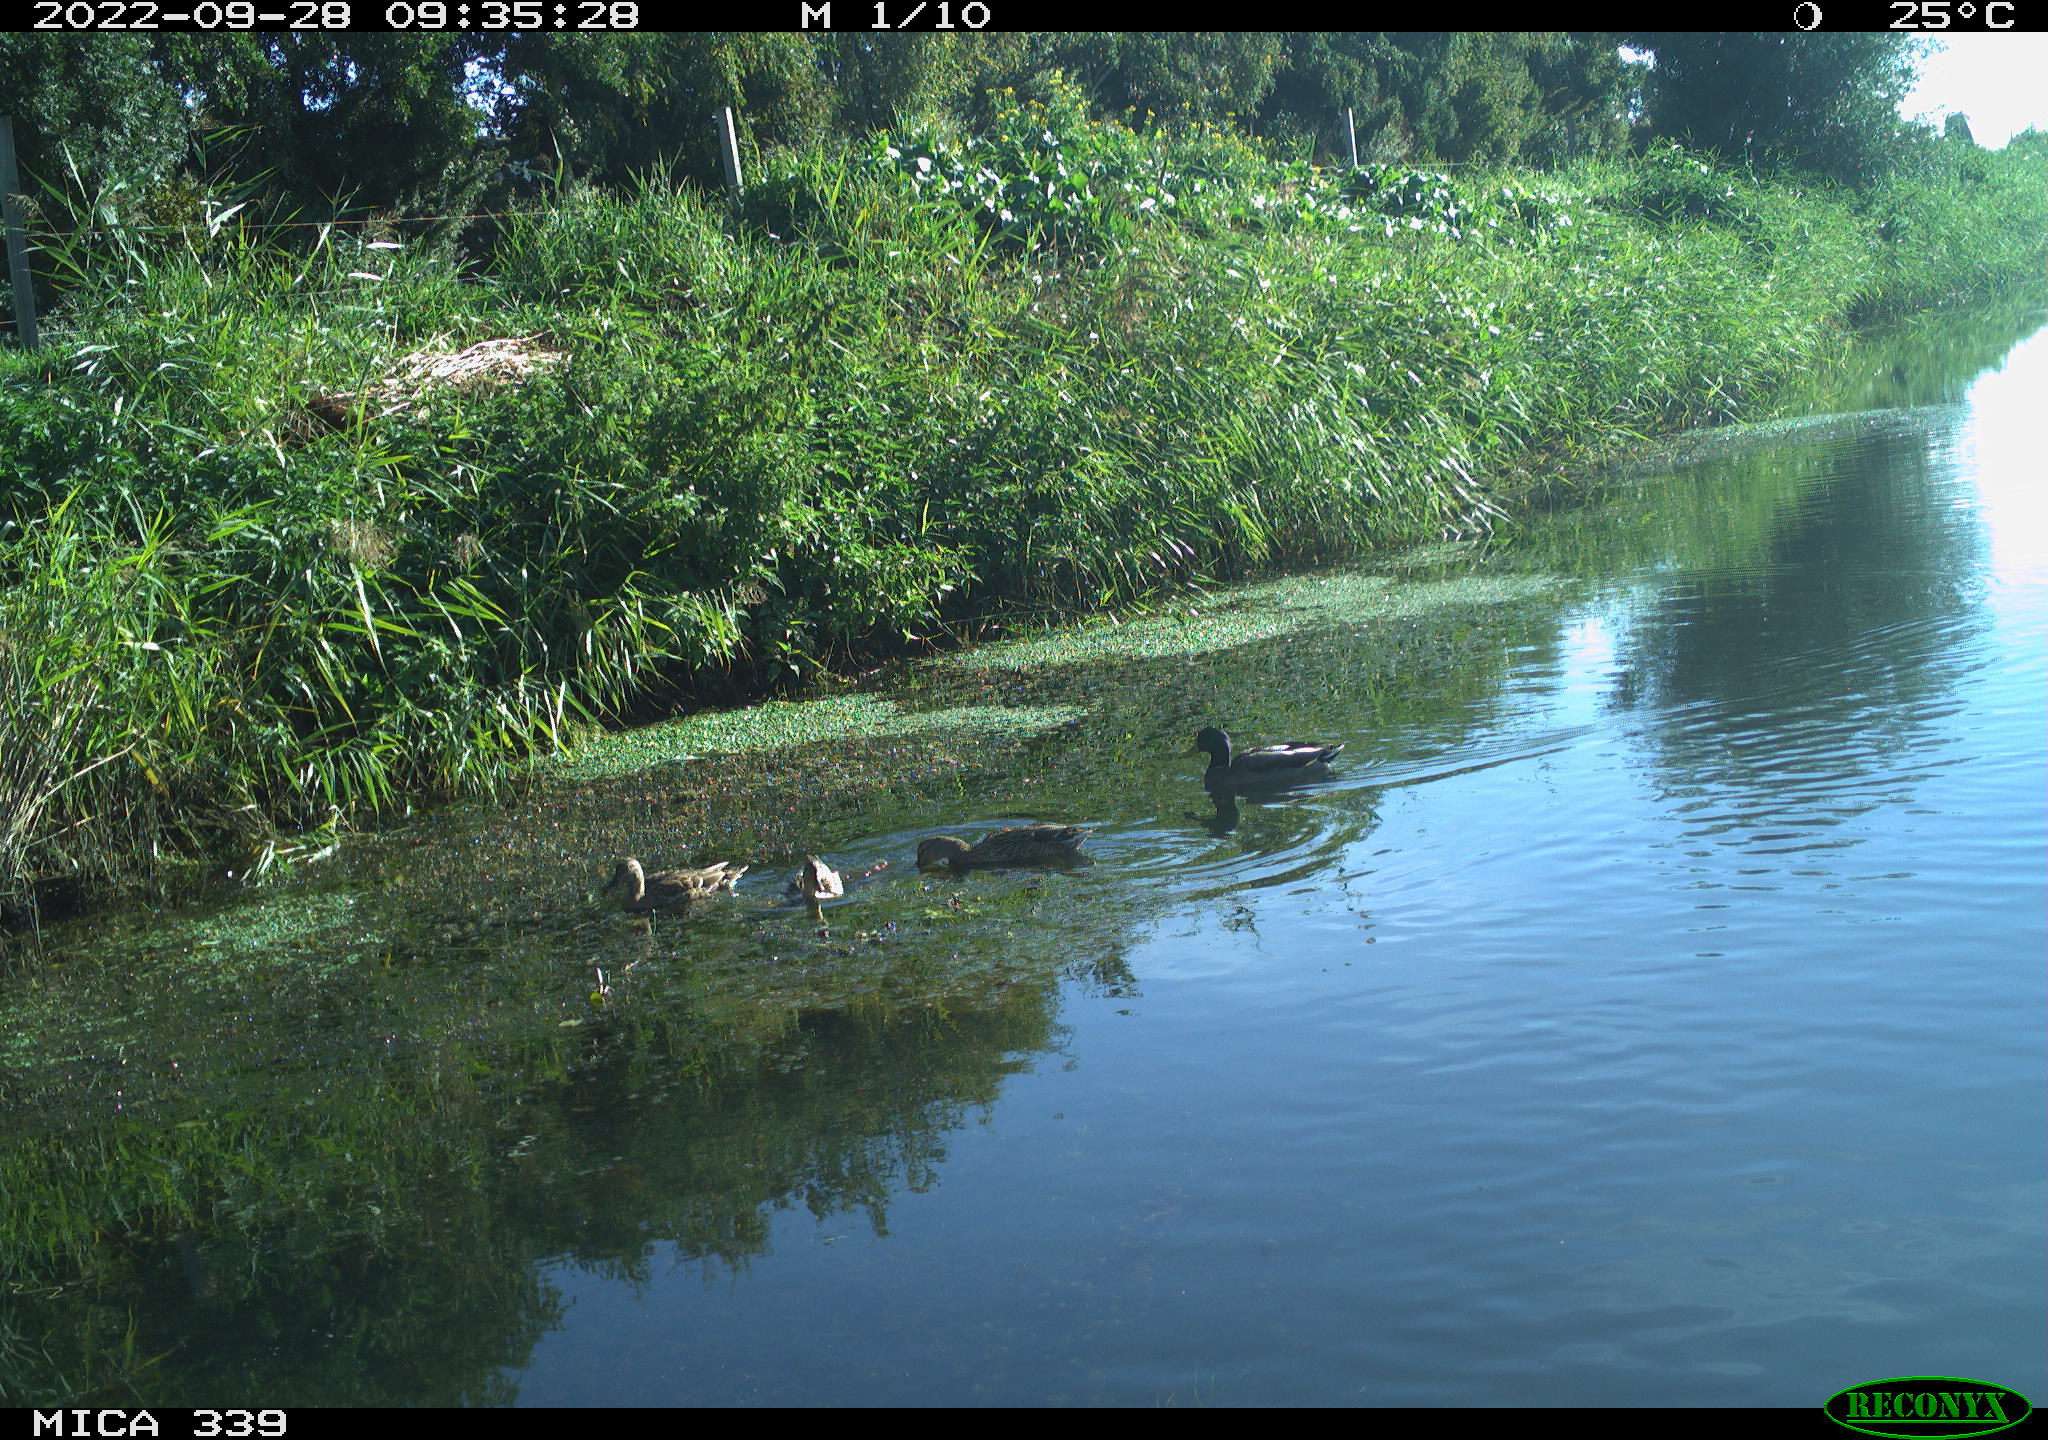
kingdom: Animalia
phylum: Chordata
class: Aves
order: Anseriformes
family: Anatidae
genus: Anas
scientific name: Anas platyrhynchos
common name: Mallard
